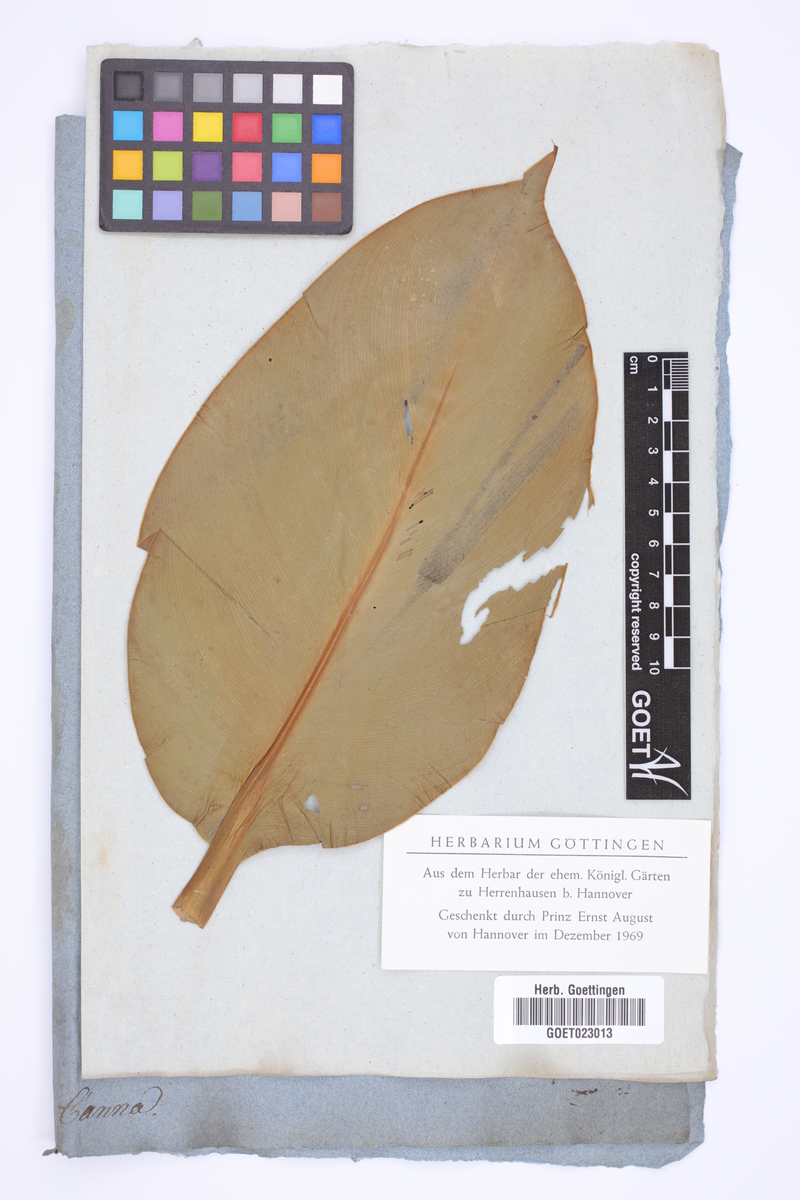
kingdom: Plantae
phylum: Tracheophyta
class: Liliopsida
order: Zingiberales
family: Cannaceae
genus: Canna
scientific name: Canna
